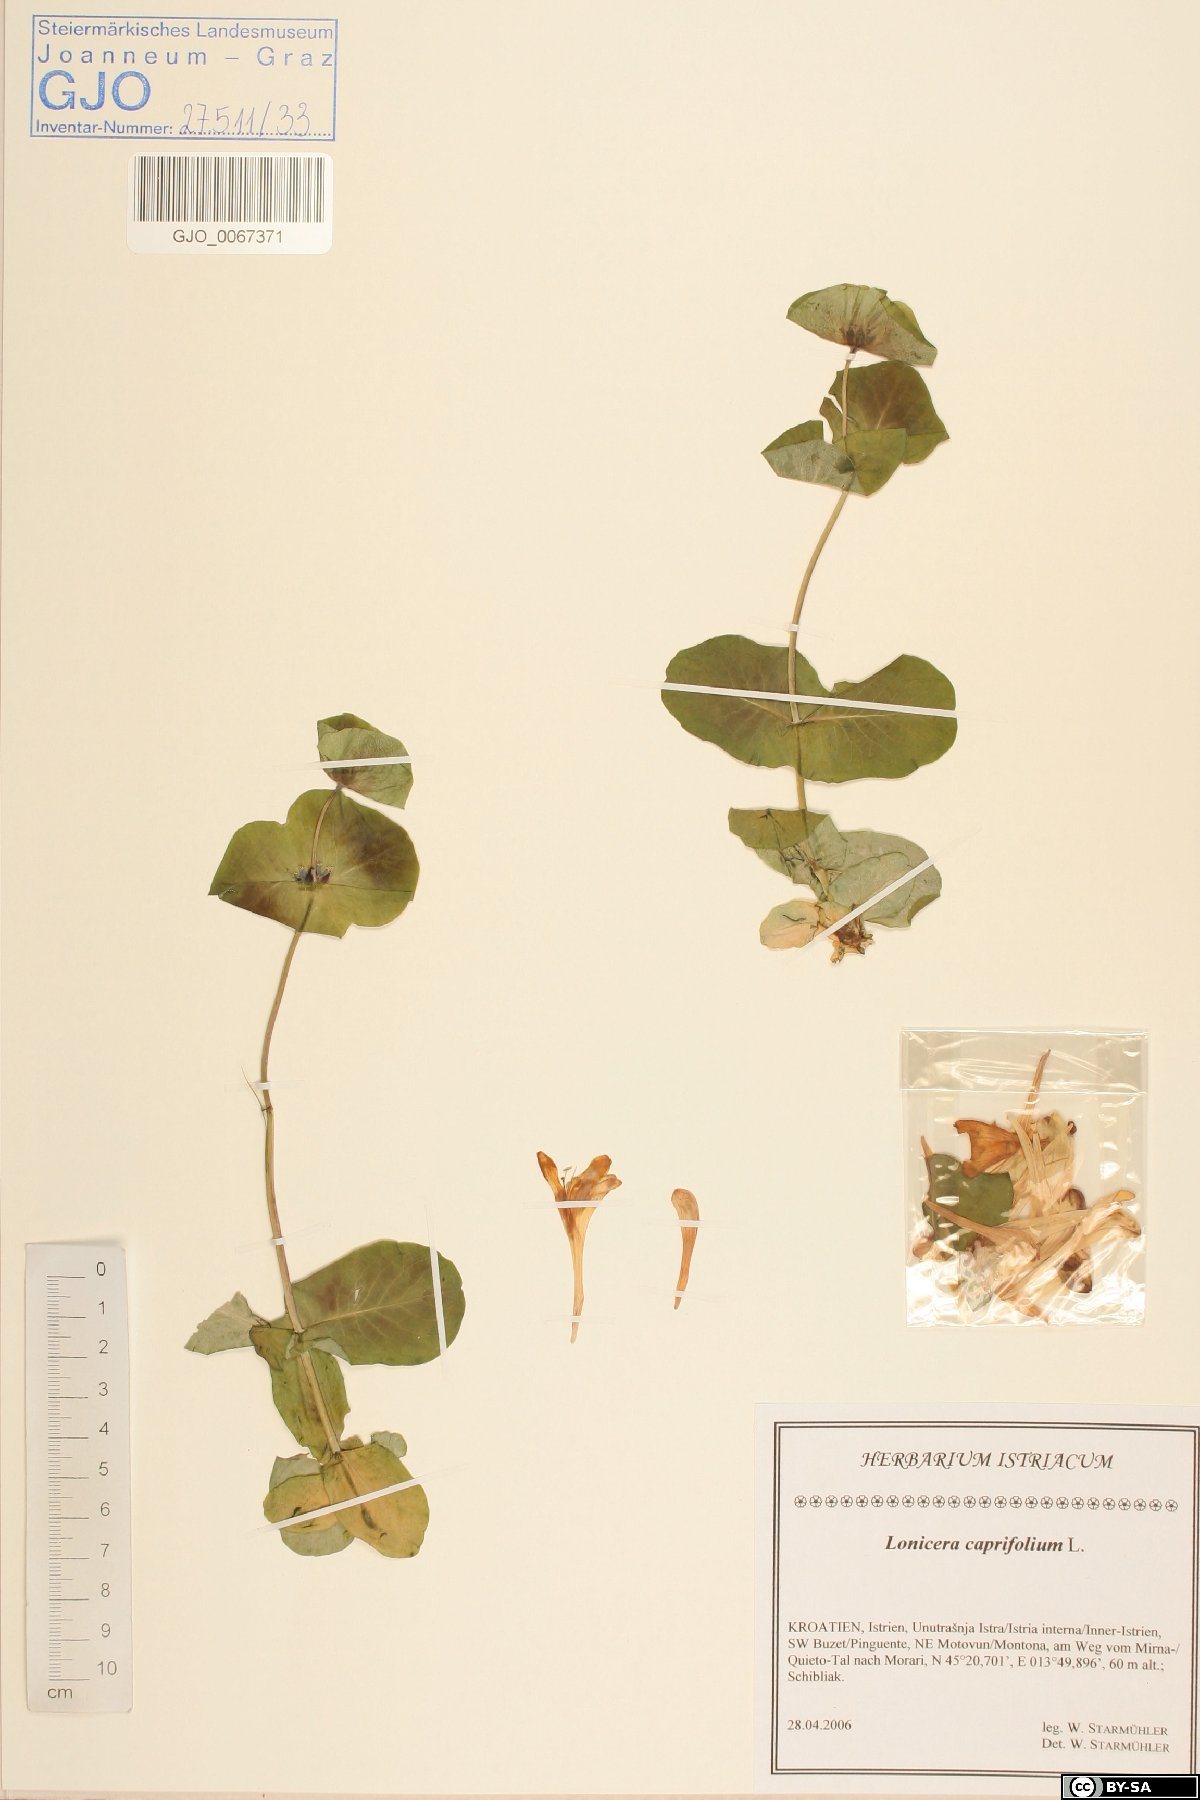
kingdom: Plantae
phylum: Tracheophyta
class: Magnoliopsida
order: Dipsacales
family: Caprifoliaceae
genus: Lonicera
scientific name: Lonicera caprifolium
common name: Perfoliate honeysuckle
